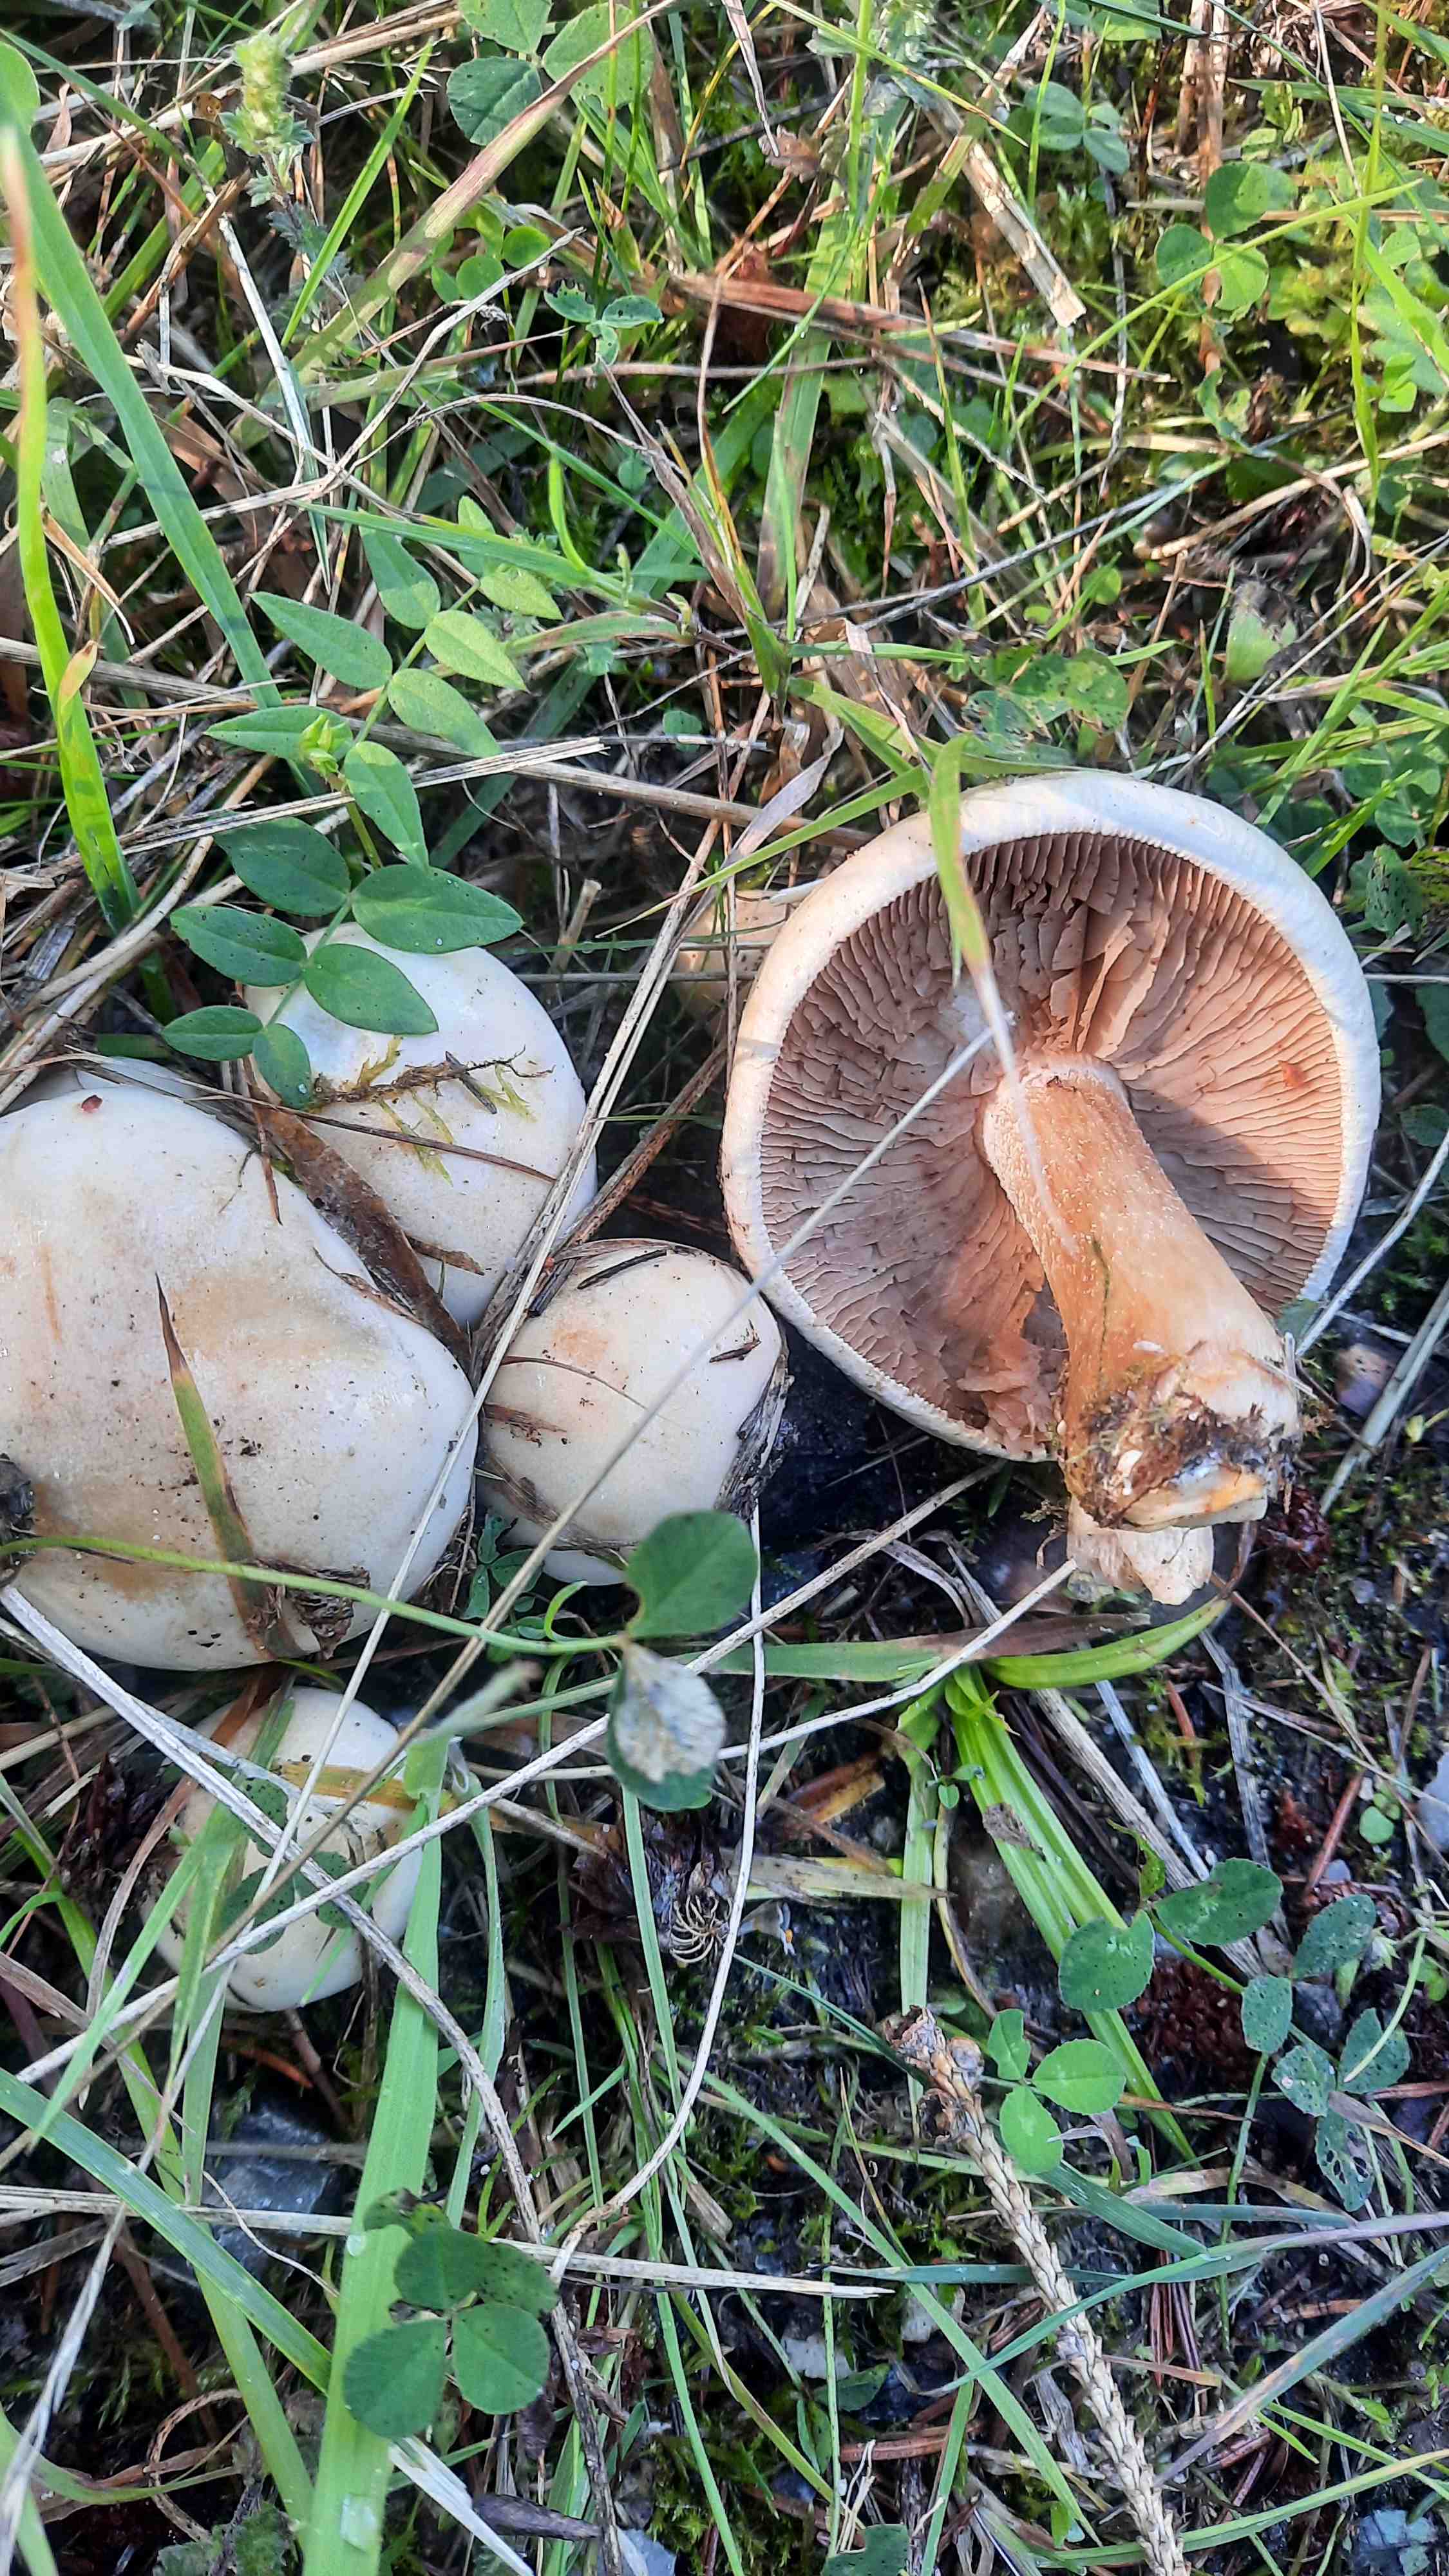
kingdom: Fungi
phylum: Basidiomycota
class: Agaricomycetes
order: Agaricales
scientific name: Agaricales
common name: champignonordenen
